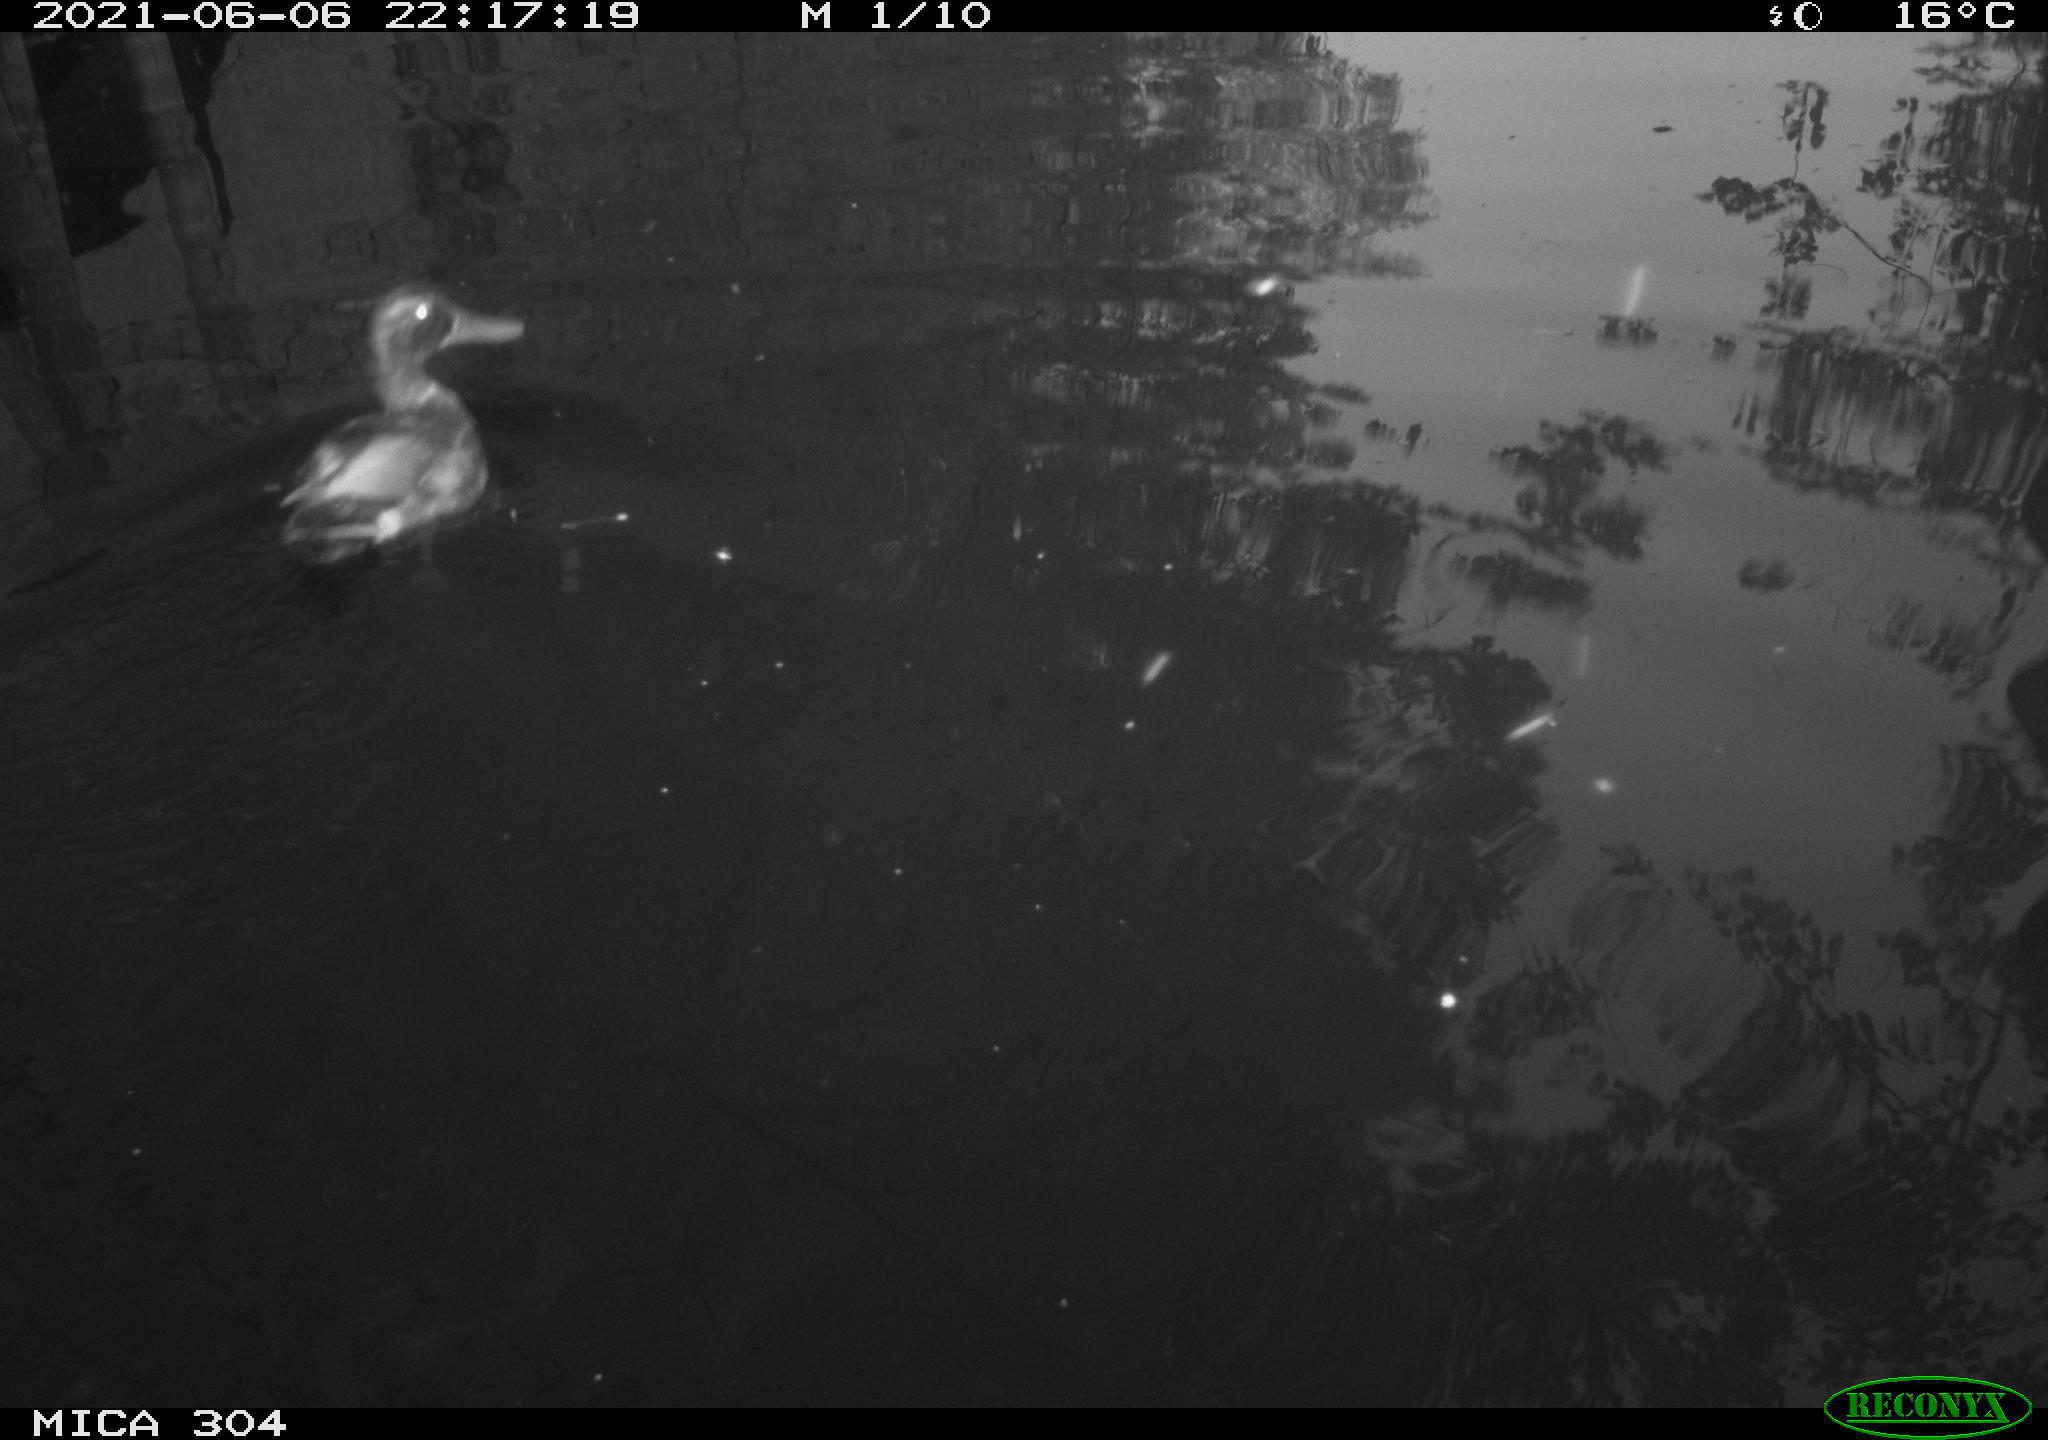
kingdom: Animalia
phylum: Chordata
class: Aves
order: Anseriformes
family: Anatidae
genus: Anas
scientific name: Anas platyrhynchos
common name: Mallard
